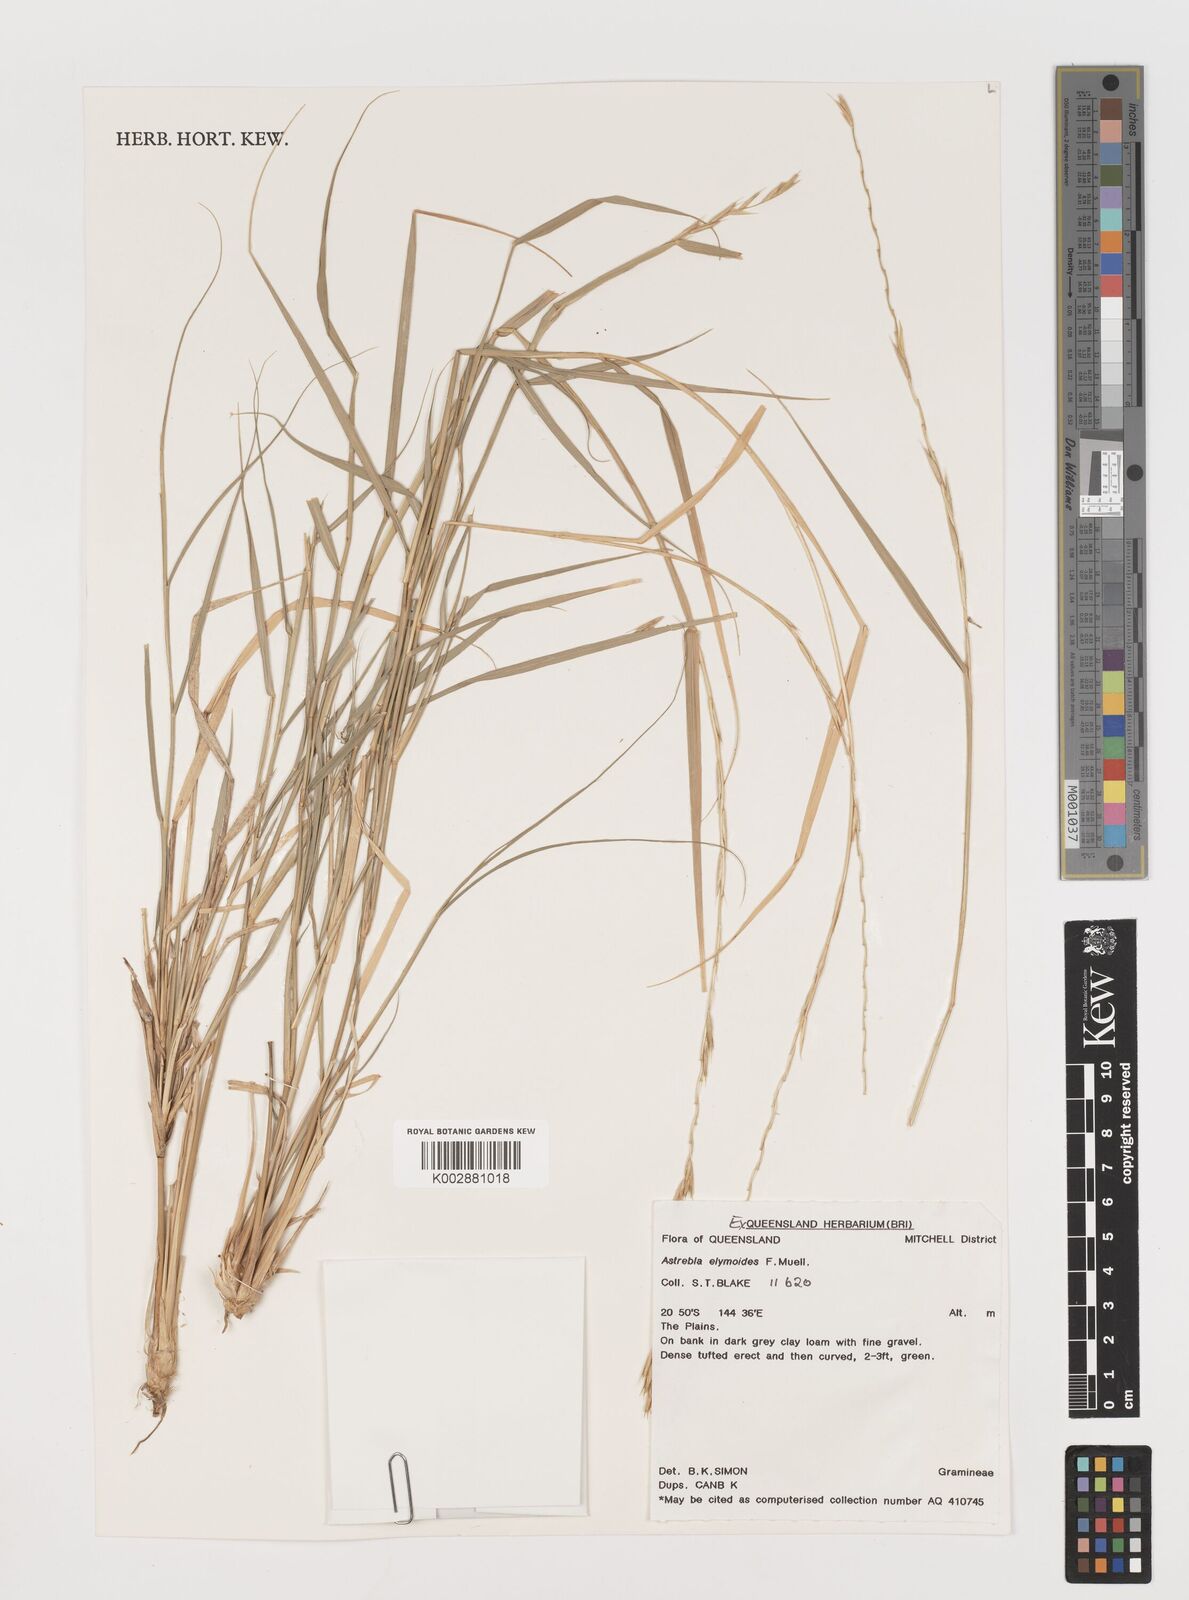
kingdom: Plantae
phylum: Tracheophyta
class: Liliopsida
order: Poales
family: Poaceae
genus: Astrebla
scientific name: Astrebla elymoides
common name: Hoop mitchell grass
